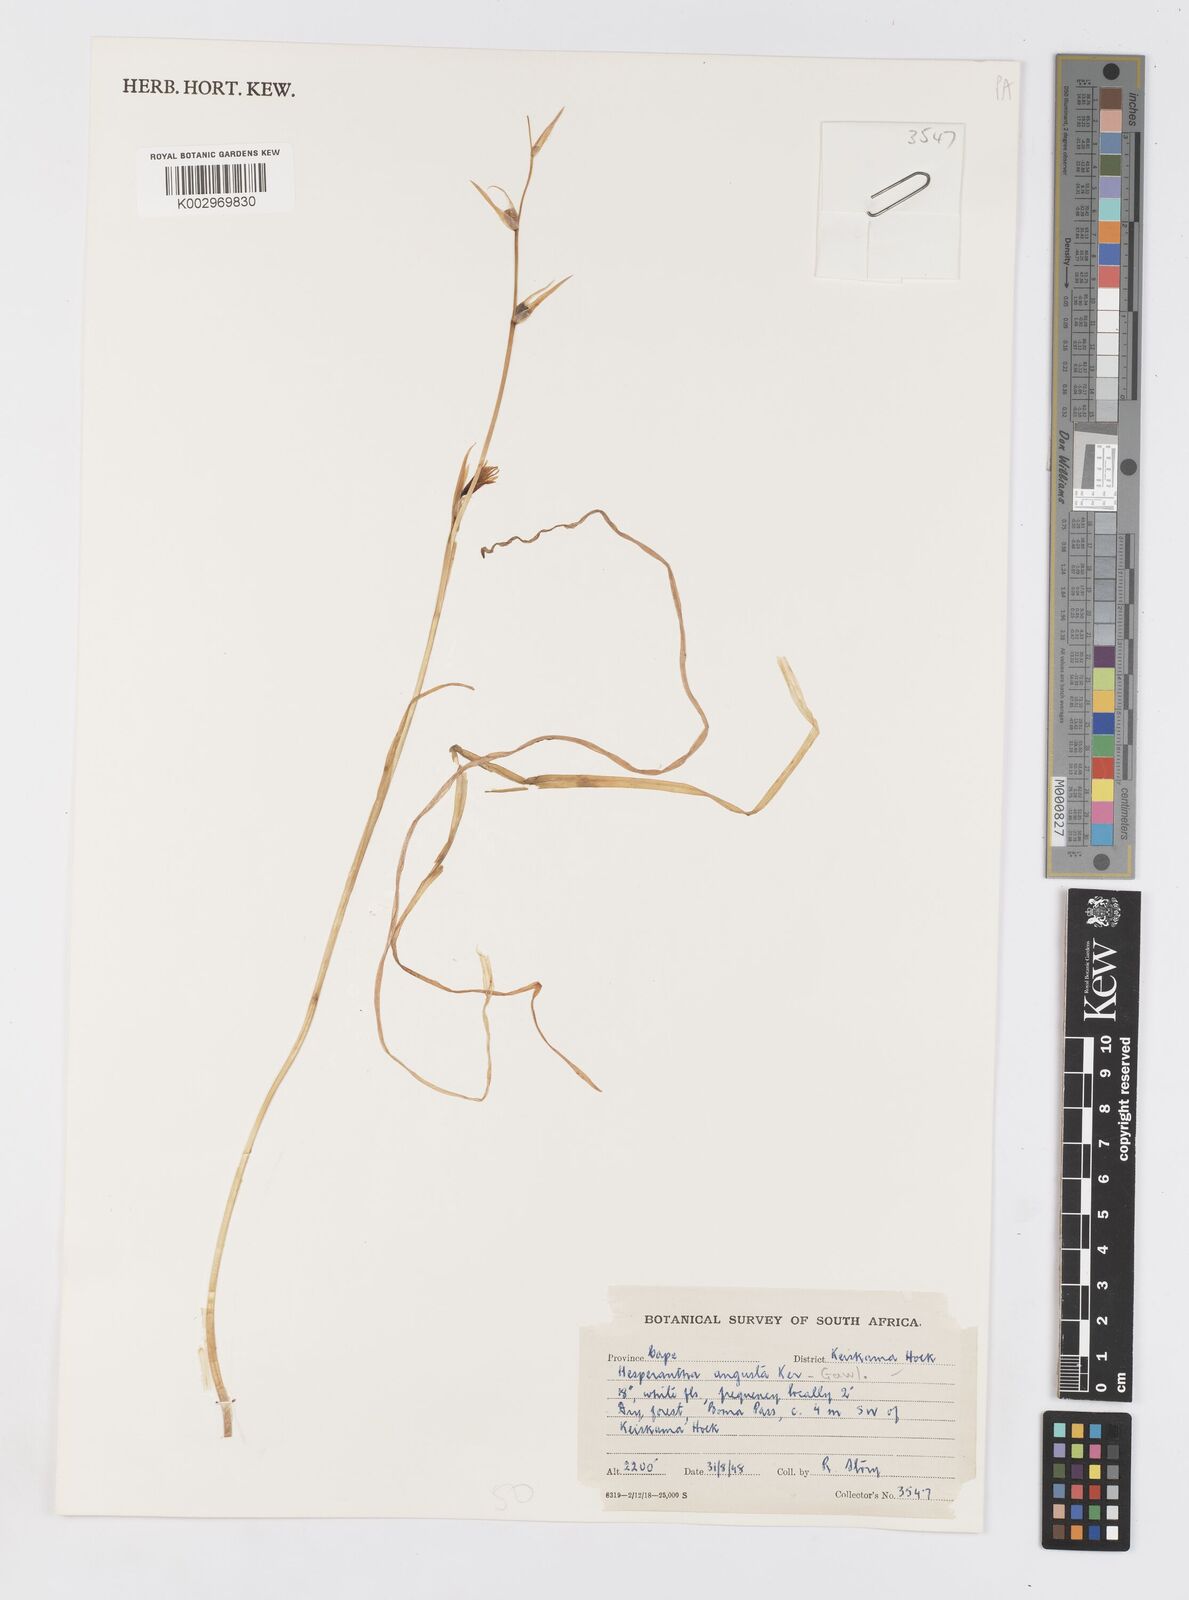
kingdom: Plantae
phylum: Tracheophyta
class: Liliopsida
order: Asparagales
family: Iridaceae
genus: Hesperantha
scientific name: Hesperantha bachmannii
